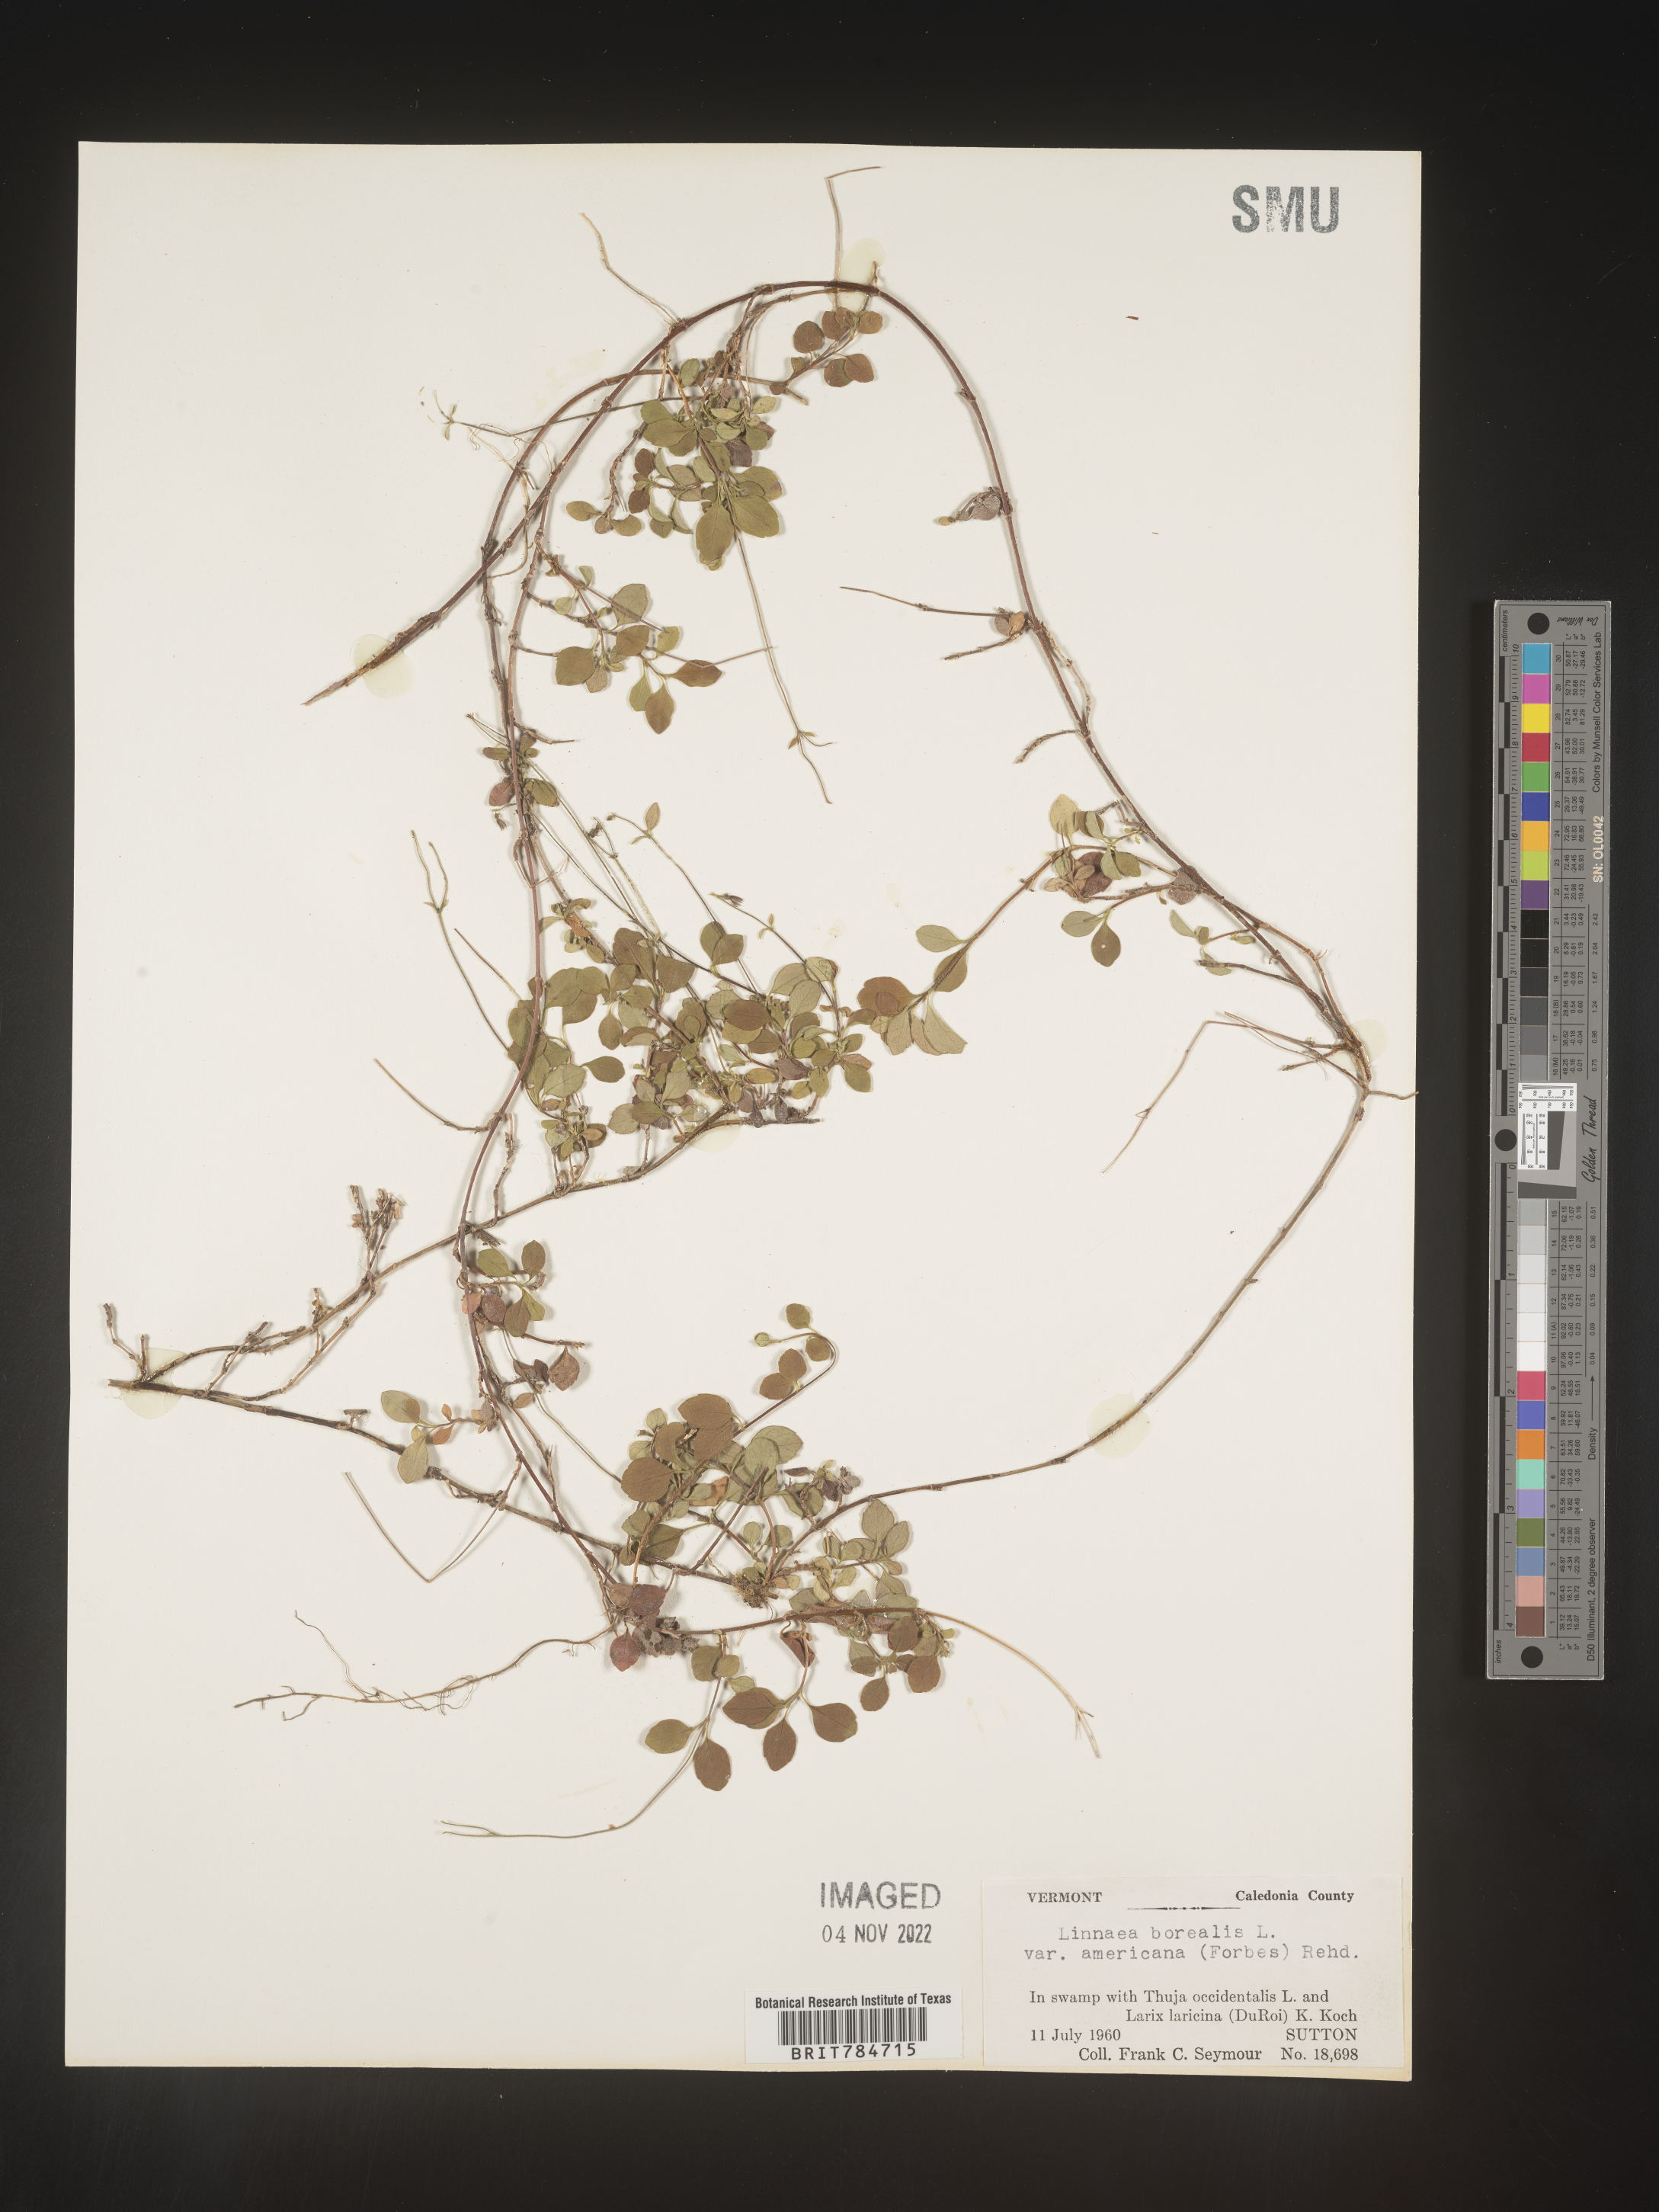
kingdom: Plantae
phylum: Tracheophyta
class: Magnoliopsida
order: Dipsacales
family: Caprifoliaceae
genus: Linnaea
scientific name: Linnaea borealis
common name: Twinflower
